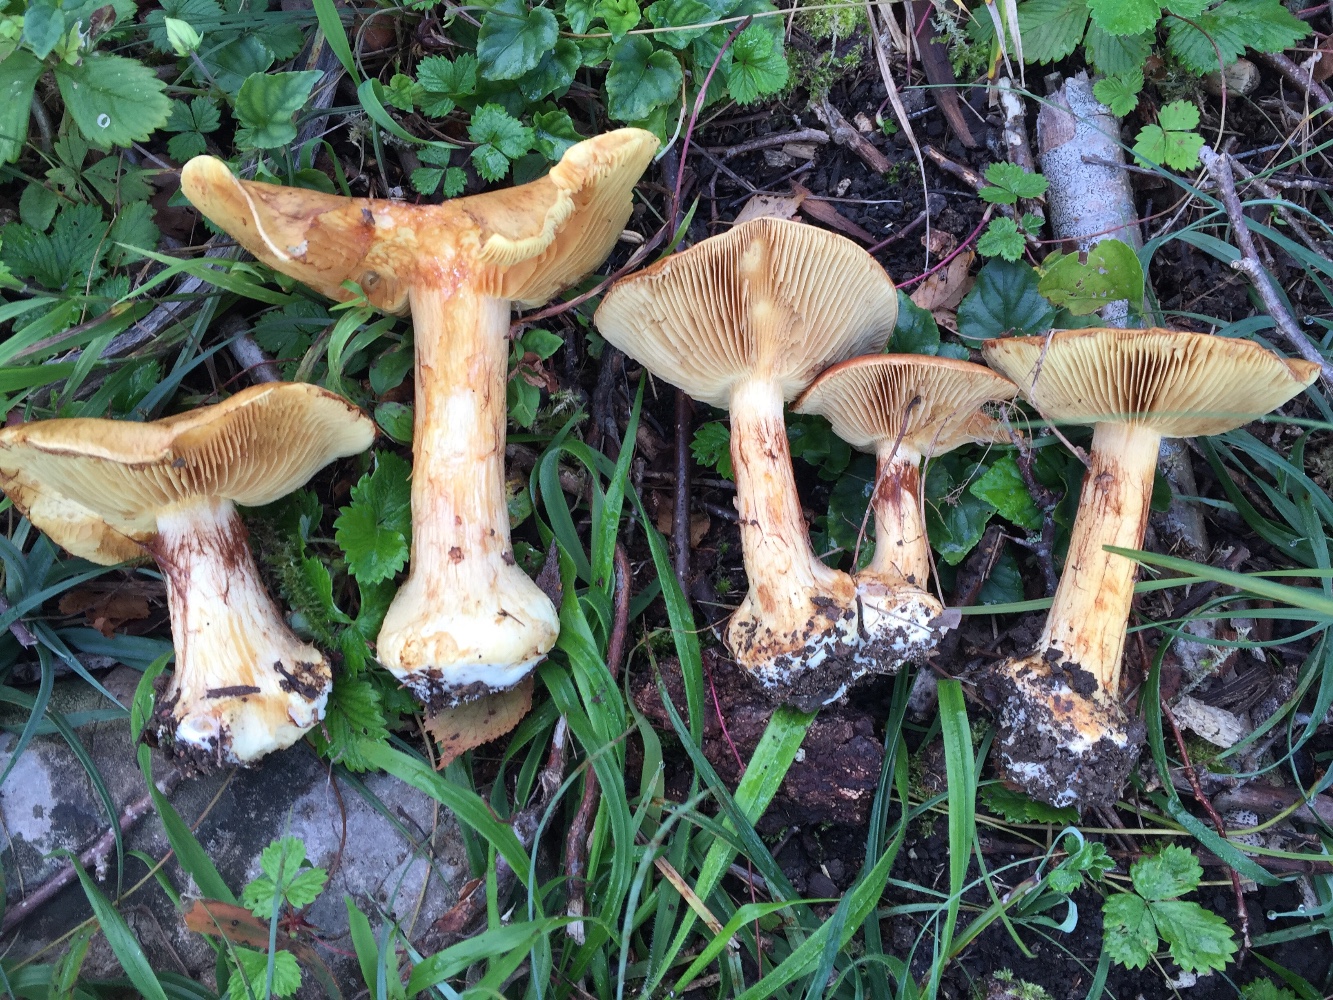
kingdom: Fungi
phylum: Basidiomycota
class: Agaricomycetes
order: Agaricales
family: Cortinariaceae
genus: Calonarius
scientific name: Calonarius quercilicis
